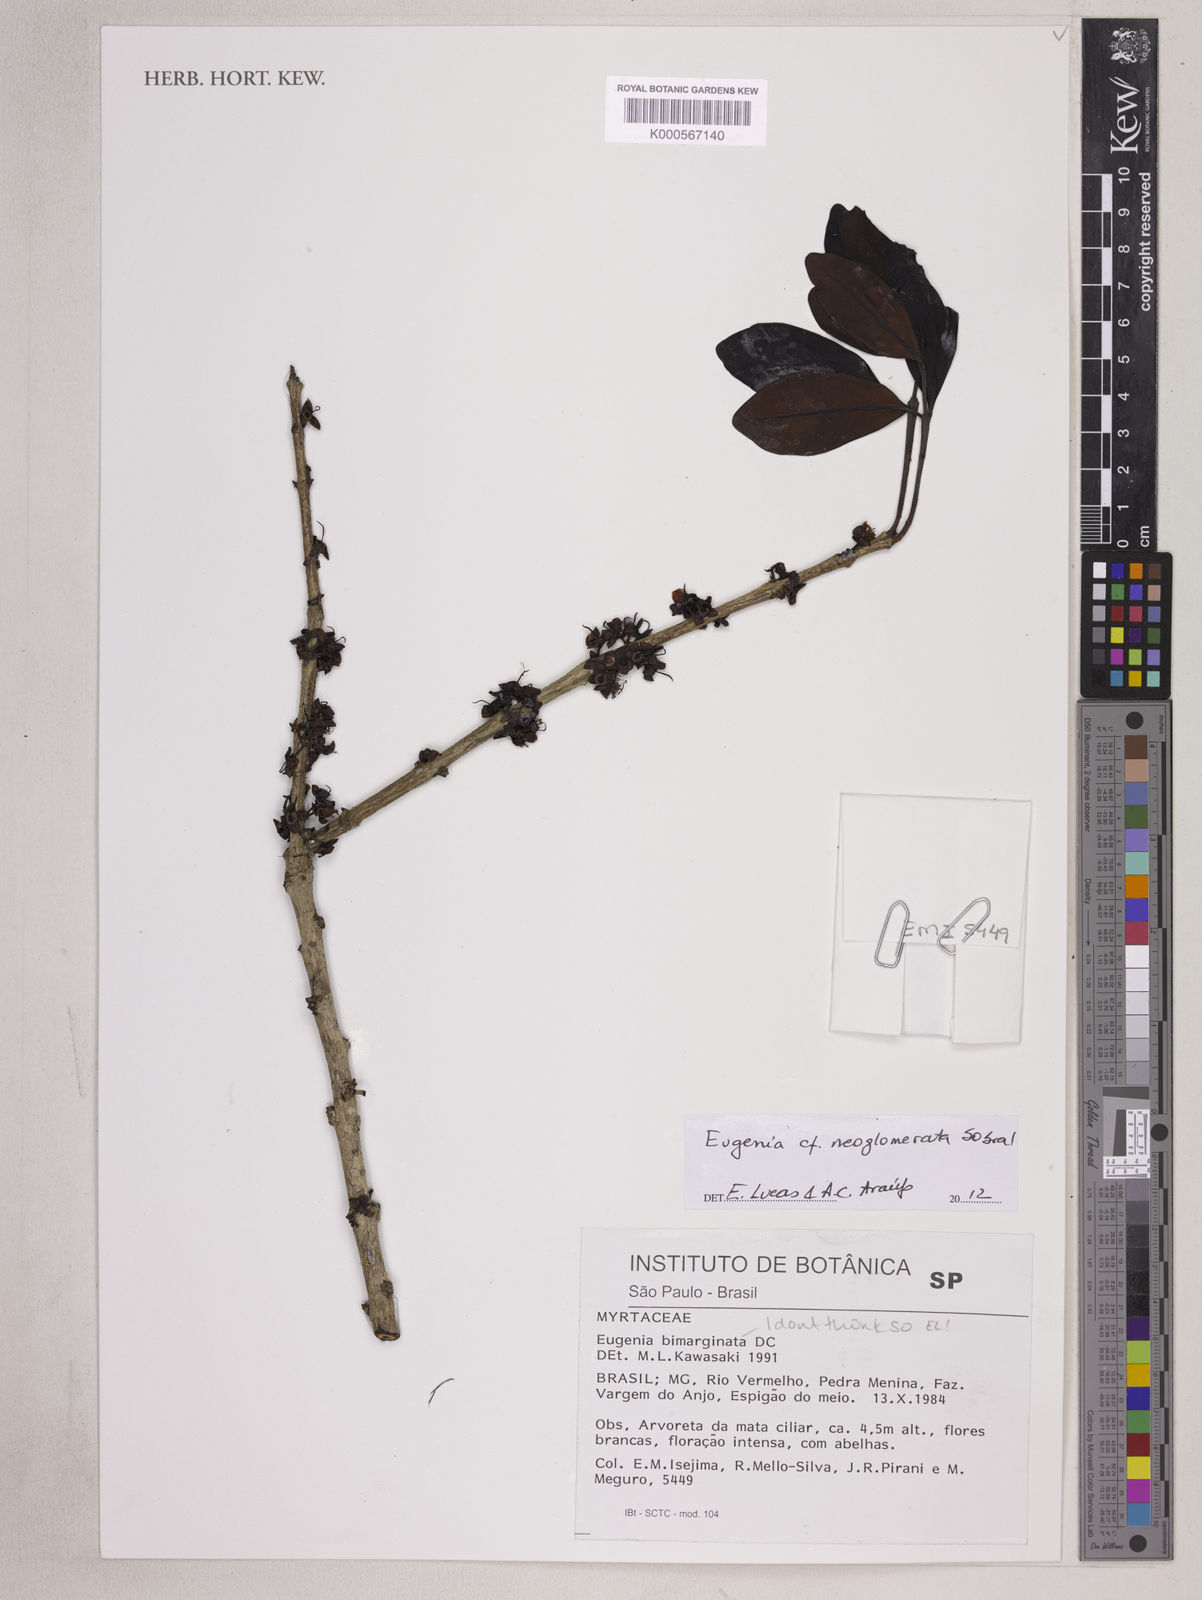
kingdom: Plantae
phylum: Tracheophyta
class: Magnoliopsida
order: Myrtales
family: Myrtaceae
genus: Eugenia
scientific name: Eugenia neoglomerata
